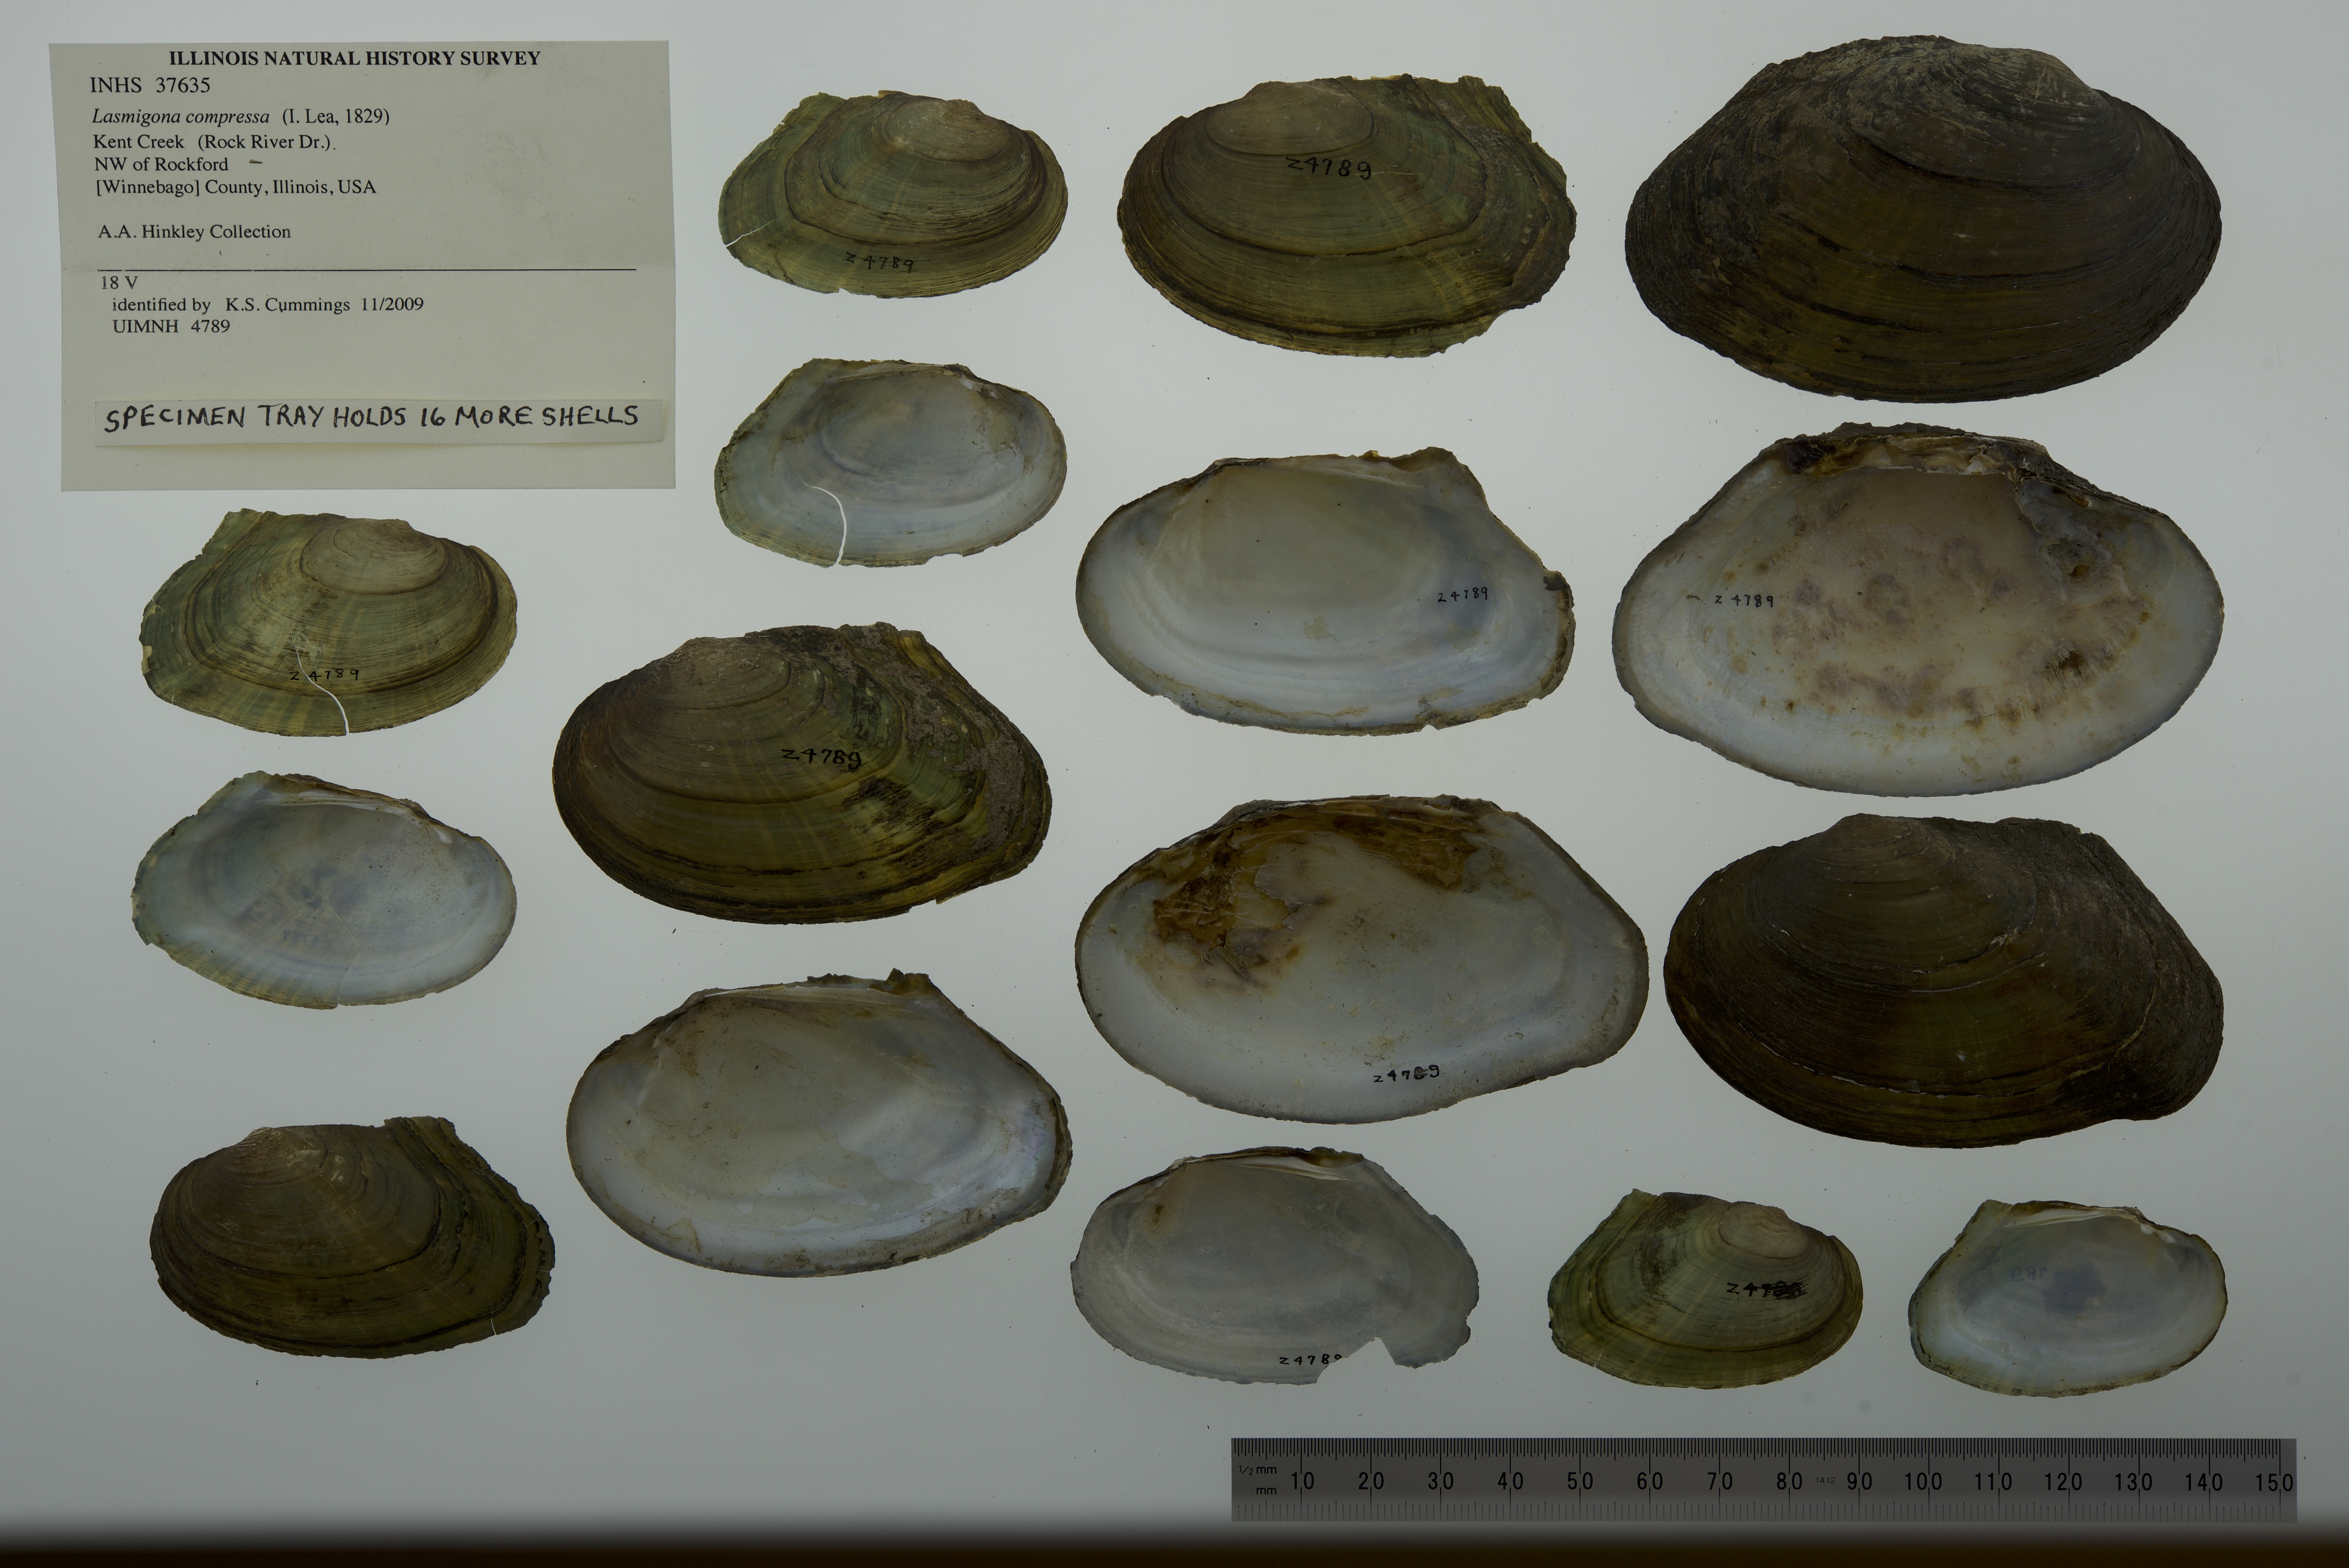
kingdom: Animalia
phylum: Mollusca
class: Bivalvia
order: Unionida
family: Unionidae
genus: Lasmigona
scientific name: Lasmigona compressa
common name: Creek heelsplitter
